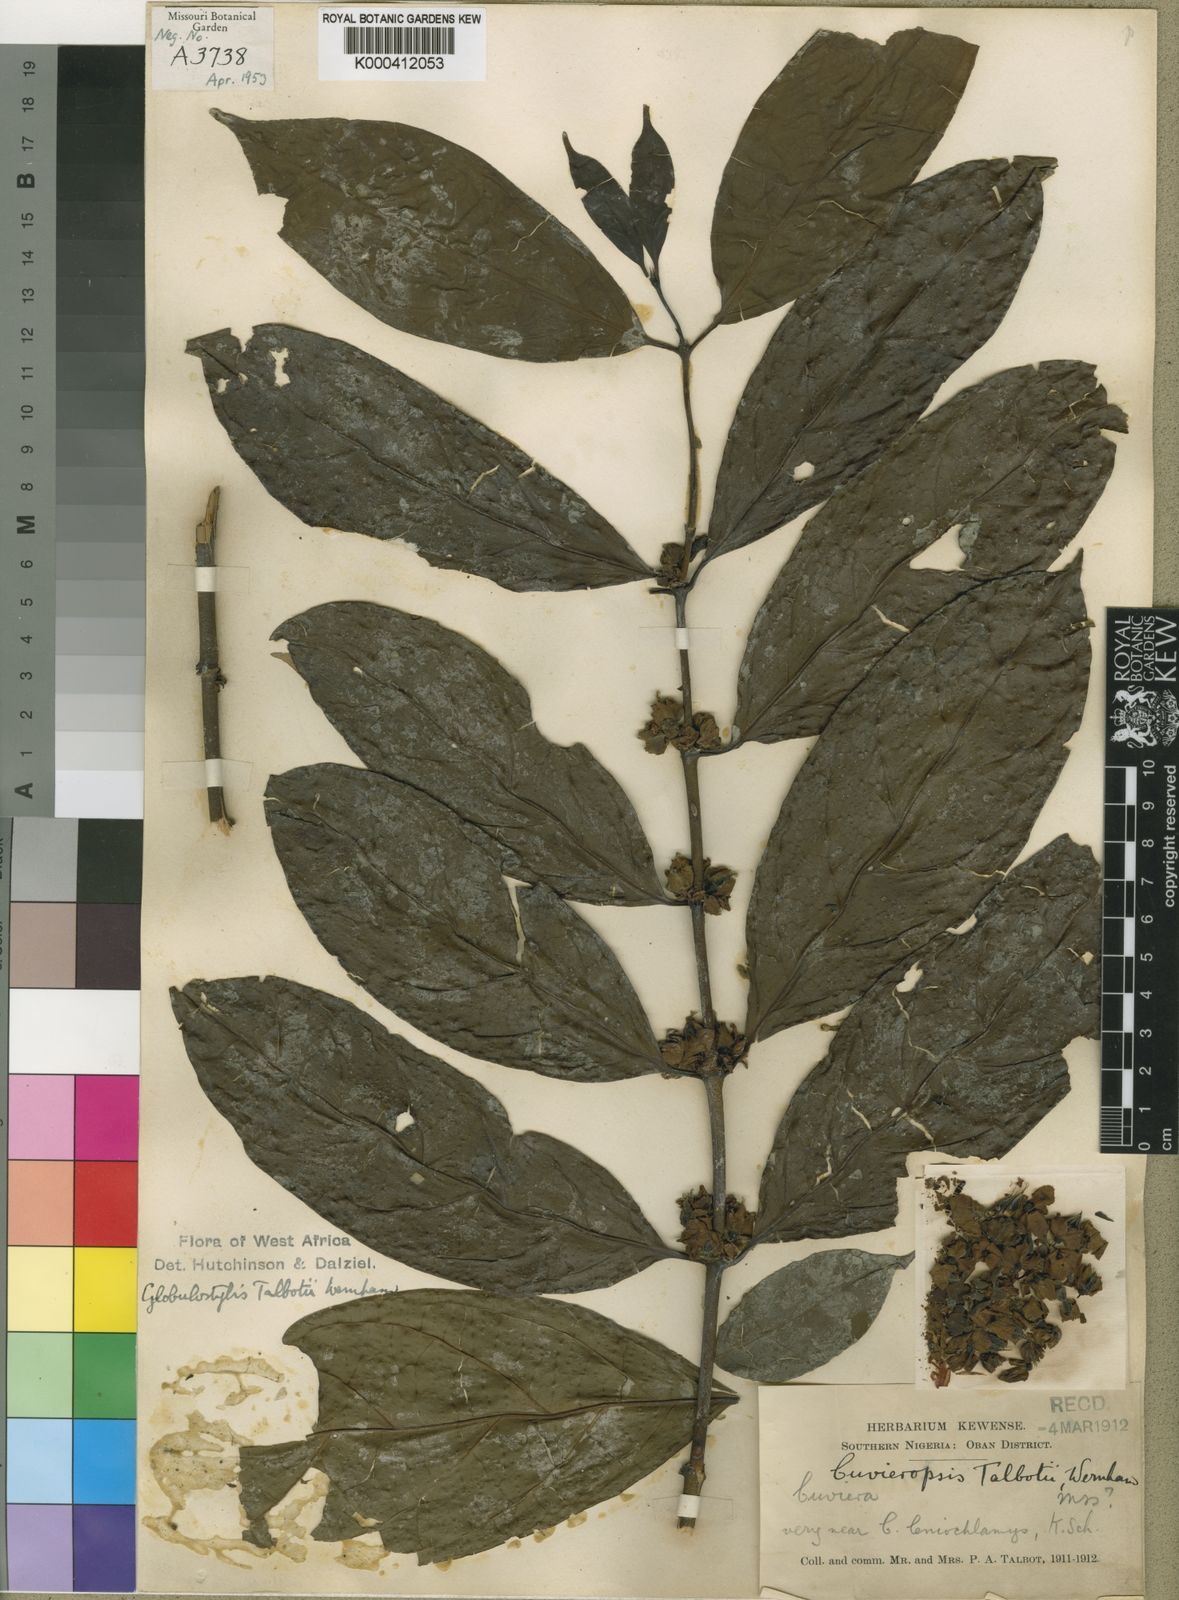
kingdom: Plantae
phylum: Tracheophyta
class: Magnoliopsida
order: Gentianales
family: Rubiaceae
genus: Cuviera
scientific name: Cuviera talbotii
